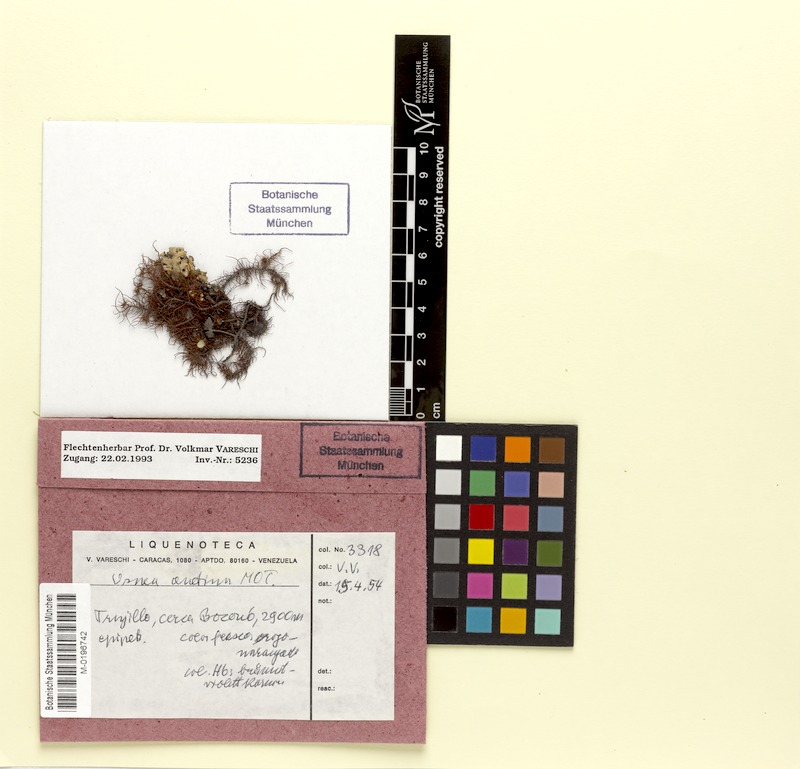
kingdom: Fungi
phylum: Ascomycota
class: Lecanoromycetes
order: Lecanorales
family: Parmeliaceae
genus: Usnea
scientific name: Usnea andina
